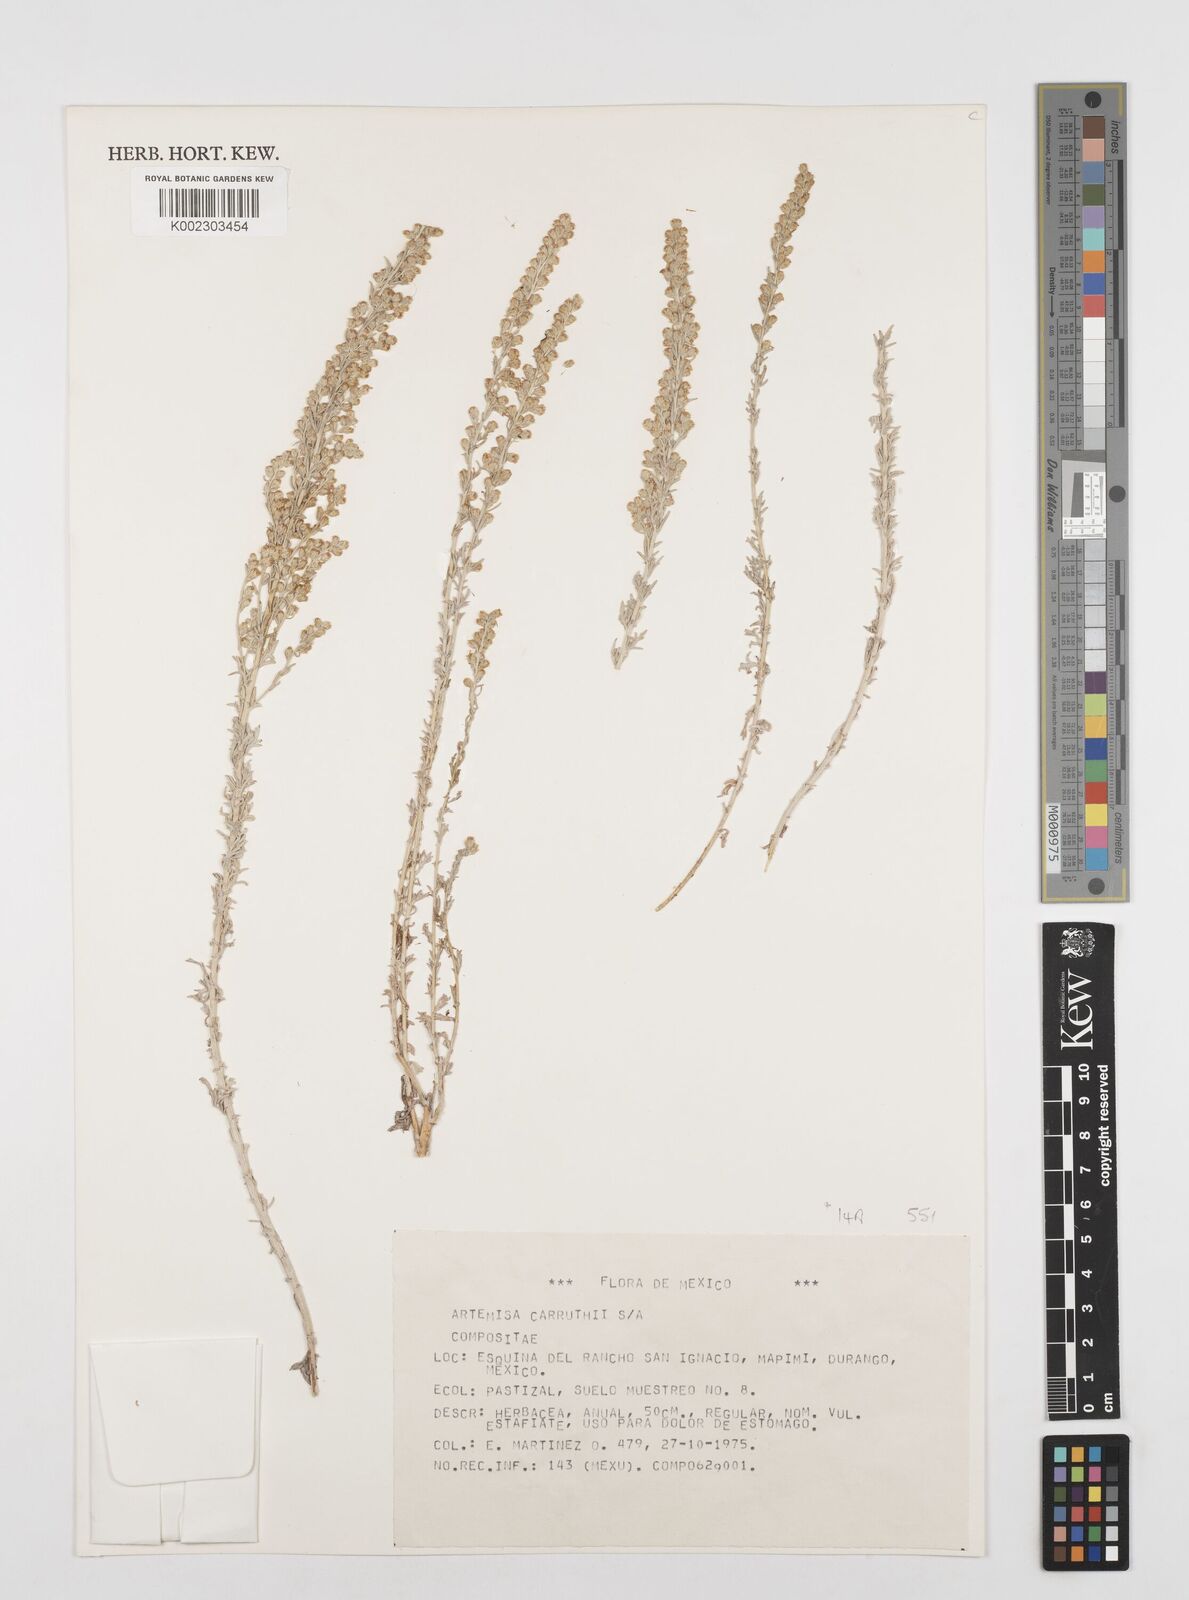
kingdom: Plantae
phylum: Tracheophyta
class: Magnoliopsida
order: Asterales
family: Asteraceae
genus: Artemisia
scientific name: Artemisia carruthii
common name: Carruth wormwood
